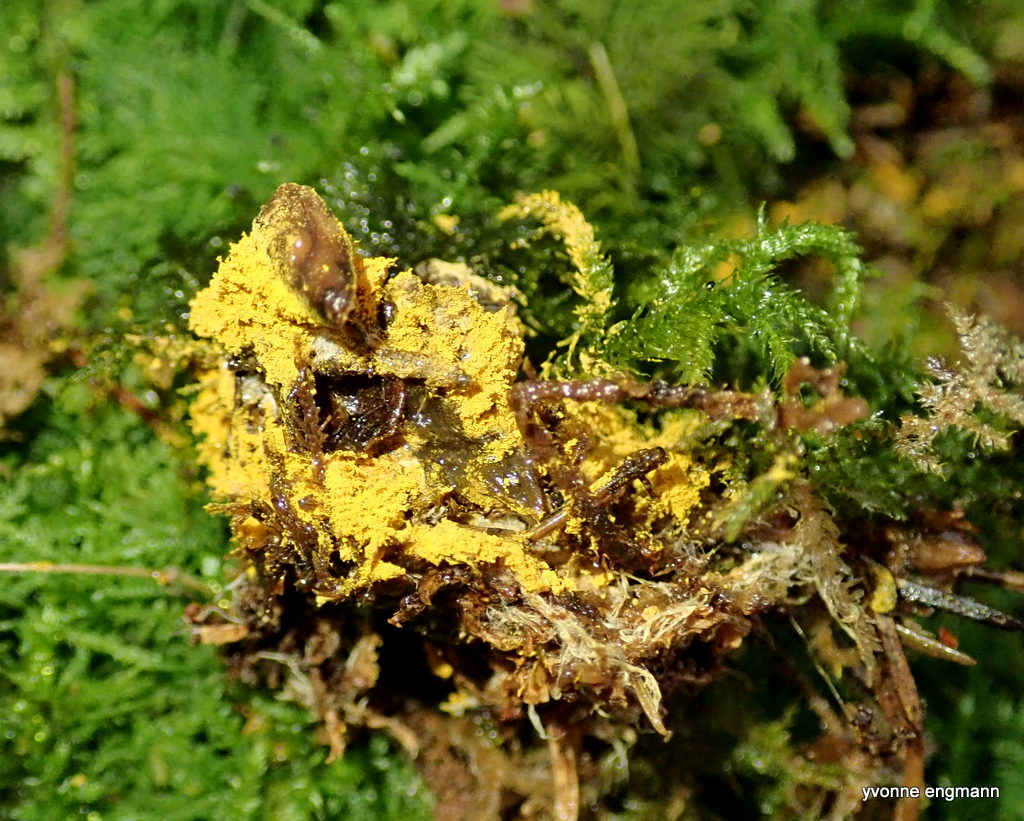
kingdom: Fungi
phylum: Ascomycota
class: Sordariomycetes
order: Hypocreales
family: Hypocreaceae
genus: Hypomyces
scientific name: Hypomyces
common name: snylteskorpe
